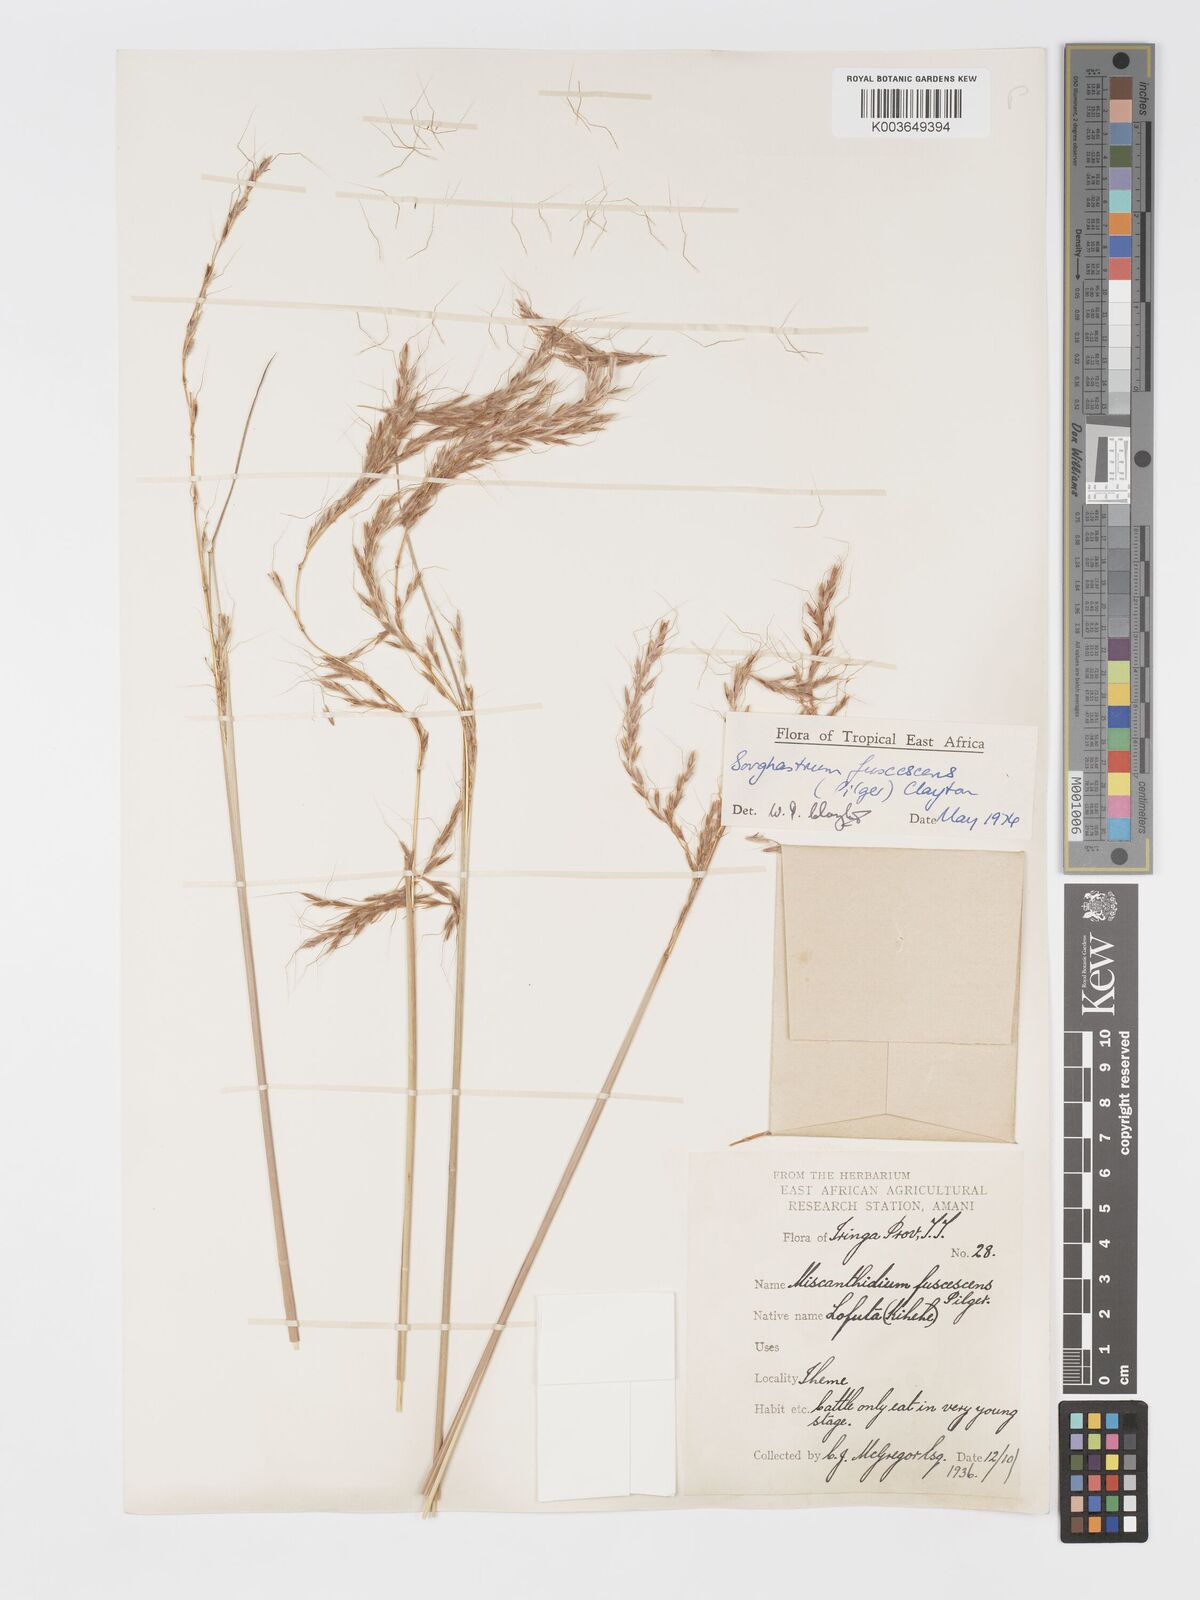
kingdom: Plantae
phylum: Tracheophyta
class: Liliopsida
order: Poales
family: Poaceae
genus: Sorghastrum
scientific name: Sorghastrum fuscescens
